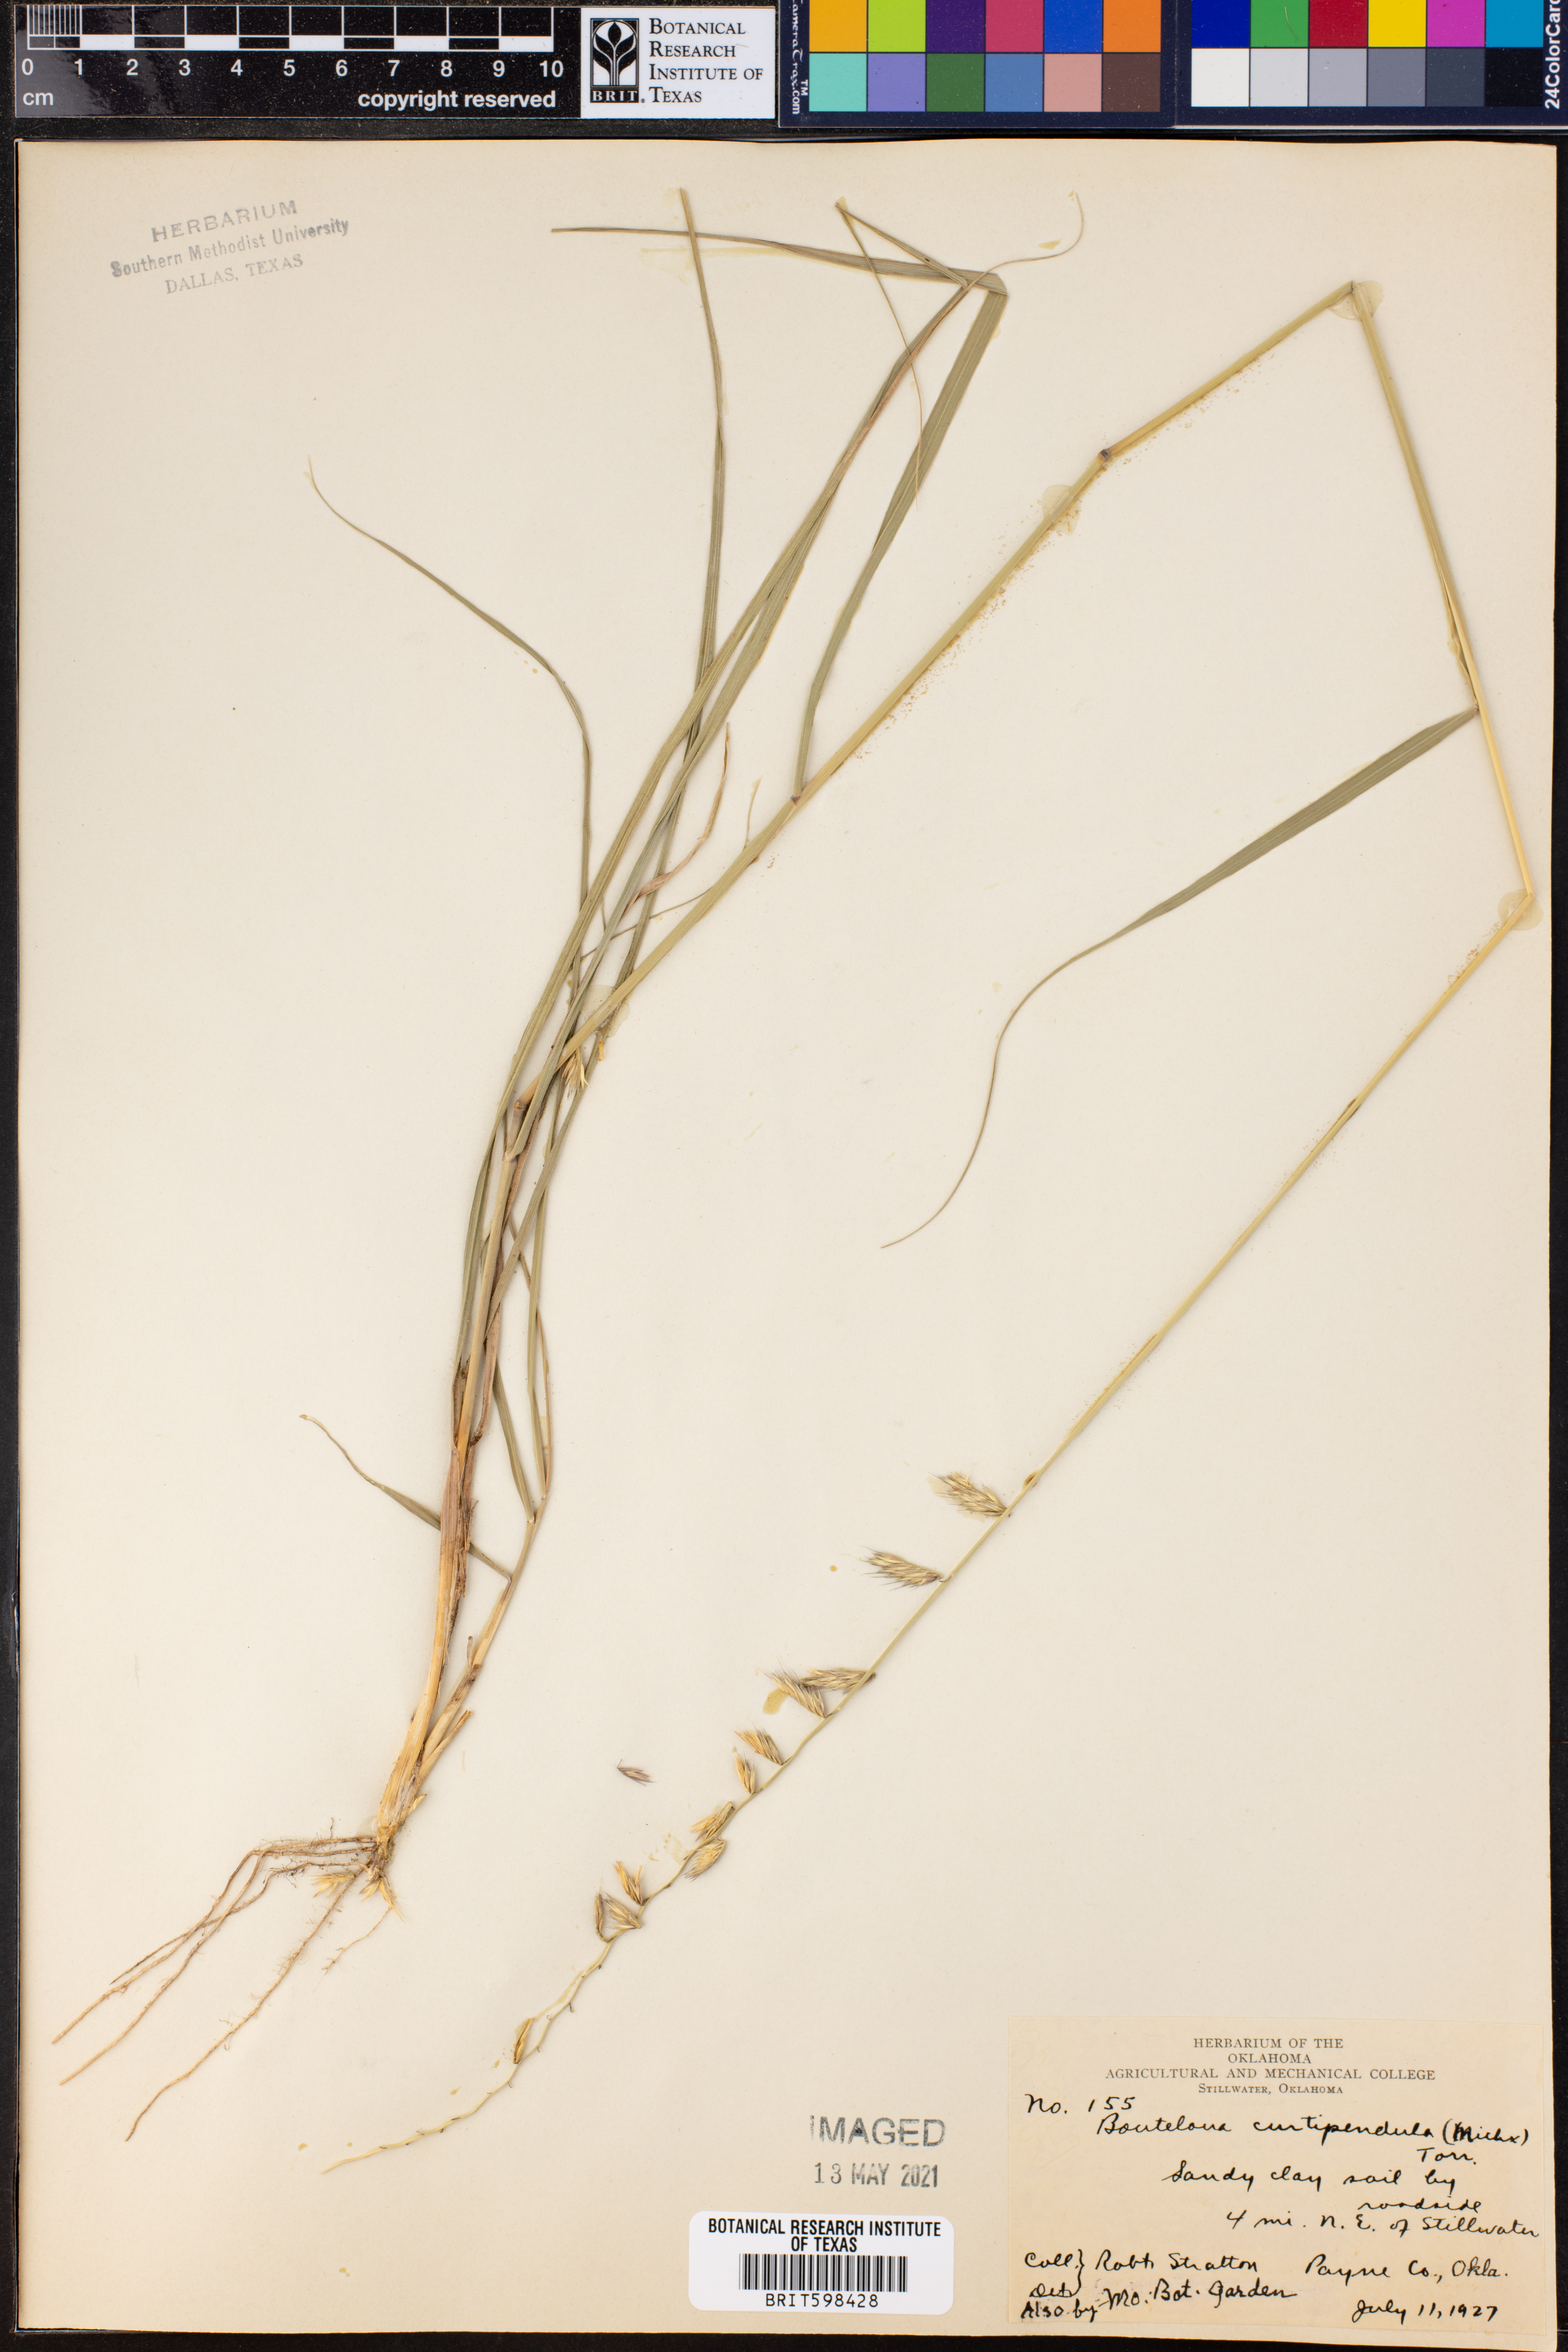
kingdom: Plantae
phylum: Tracheophyta
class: Liliopsida
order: Poales
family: Poaceae
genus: Bouteloua
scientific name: Bouteloua curtipendula
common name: Side-oats grama
